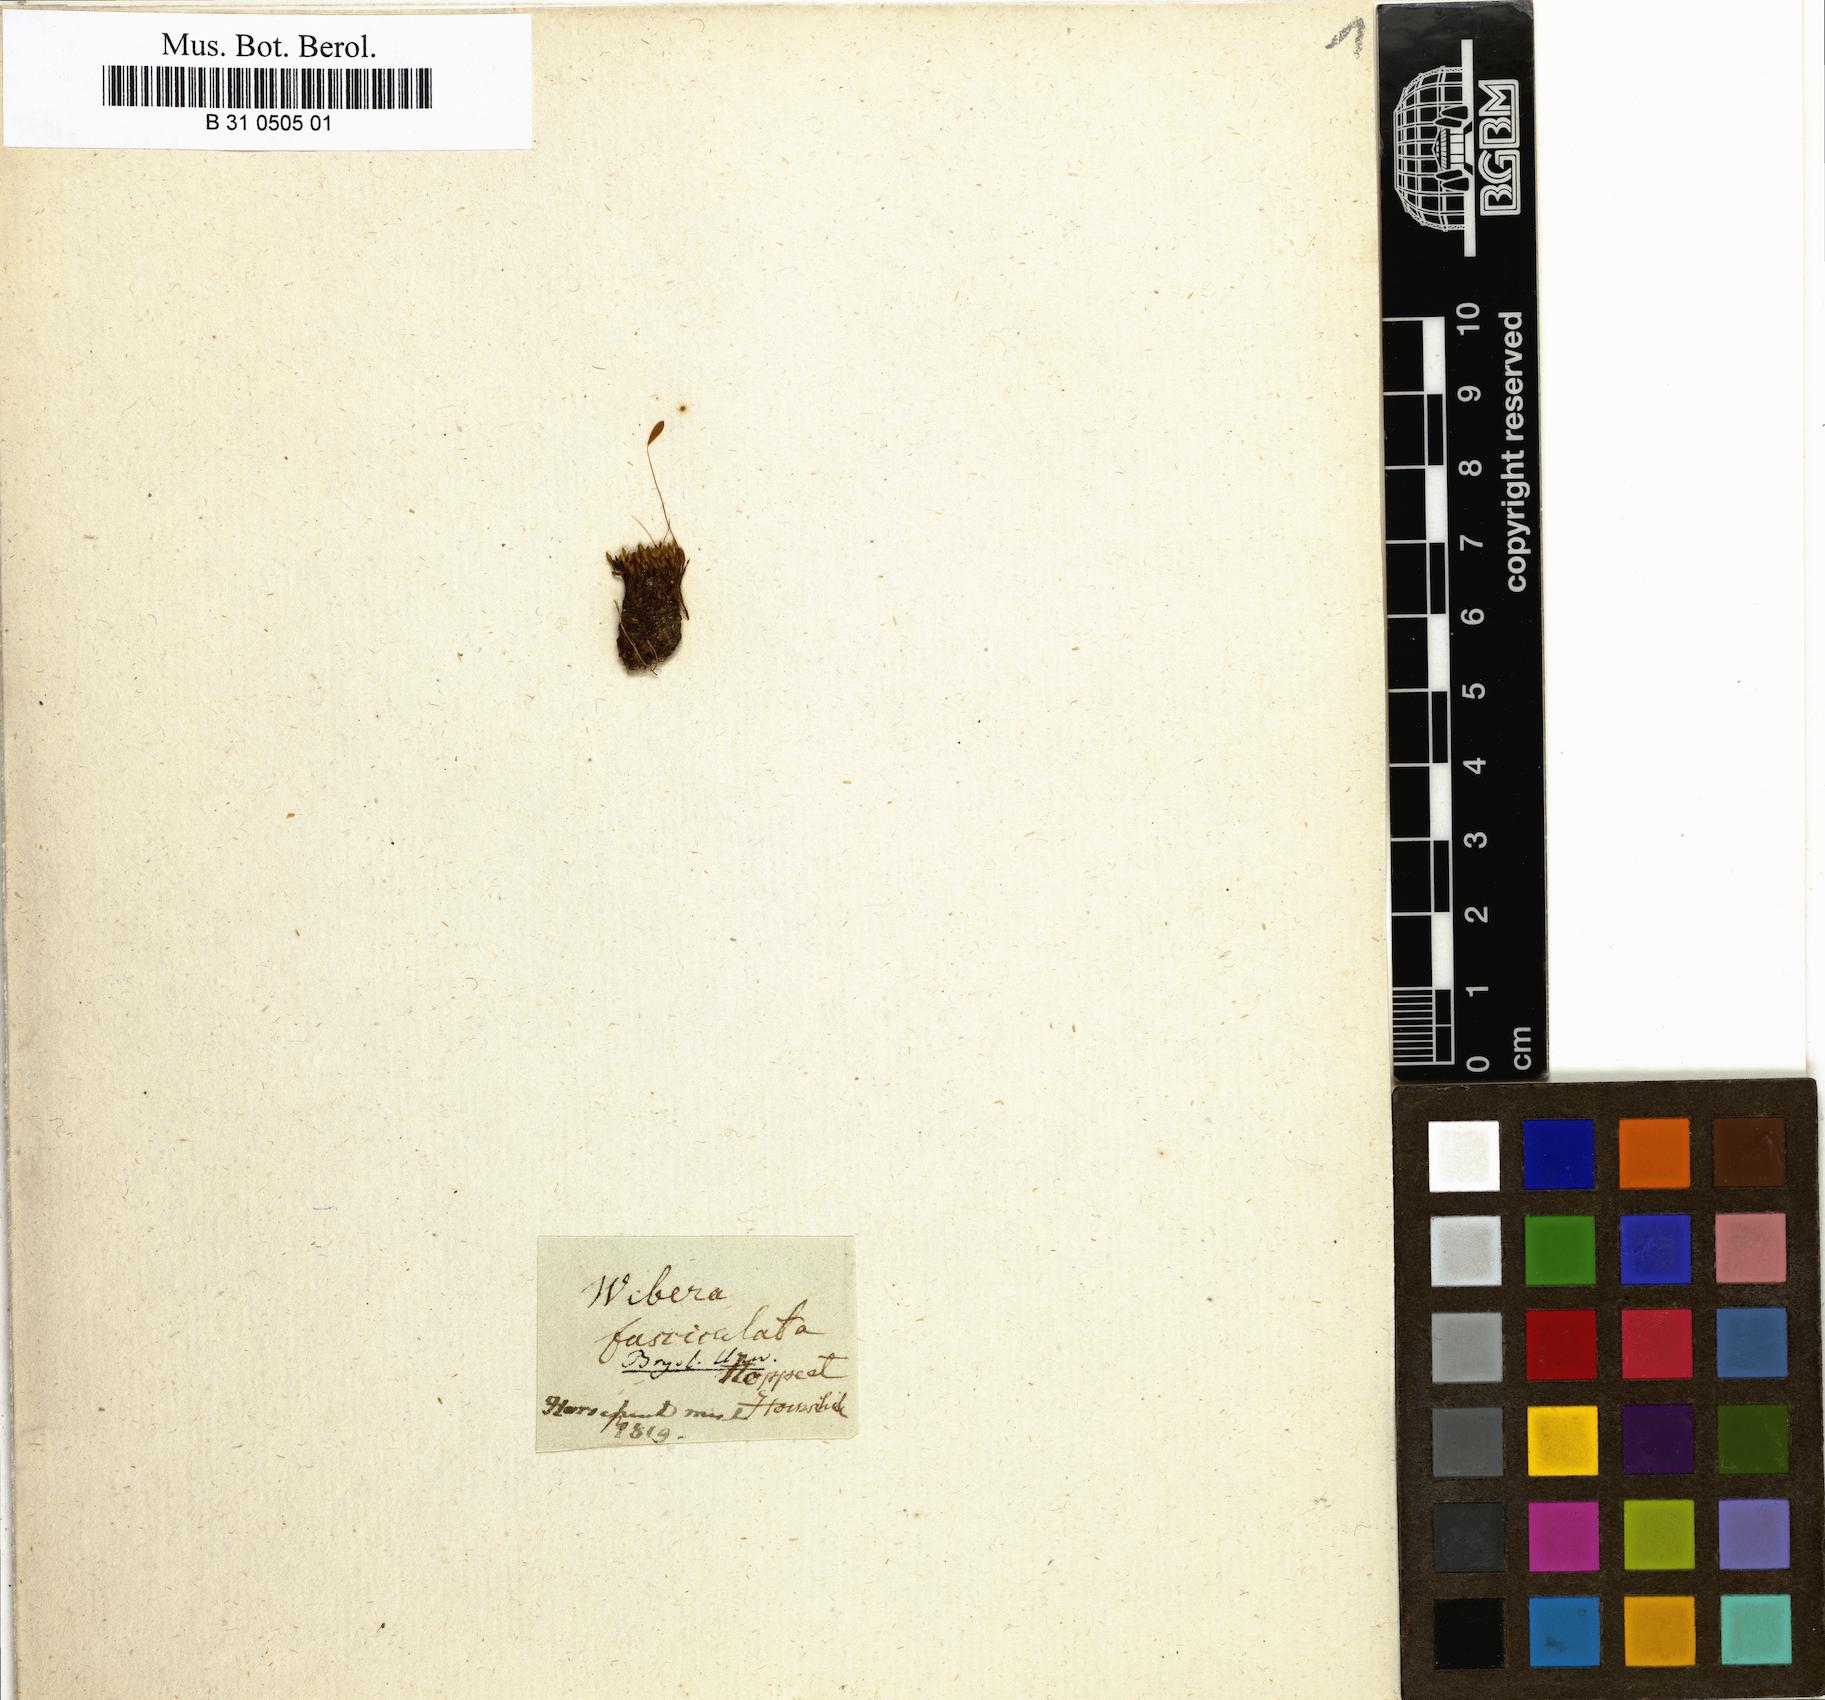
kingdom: Plantae
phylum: Bryophyta
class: Bryopsida
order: Bryales
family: Mniaceae
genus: Pohlia
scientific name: Pohlia longicolla
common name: Long-necked nodding moss
